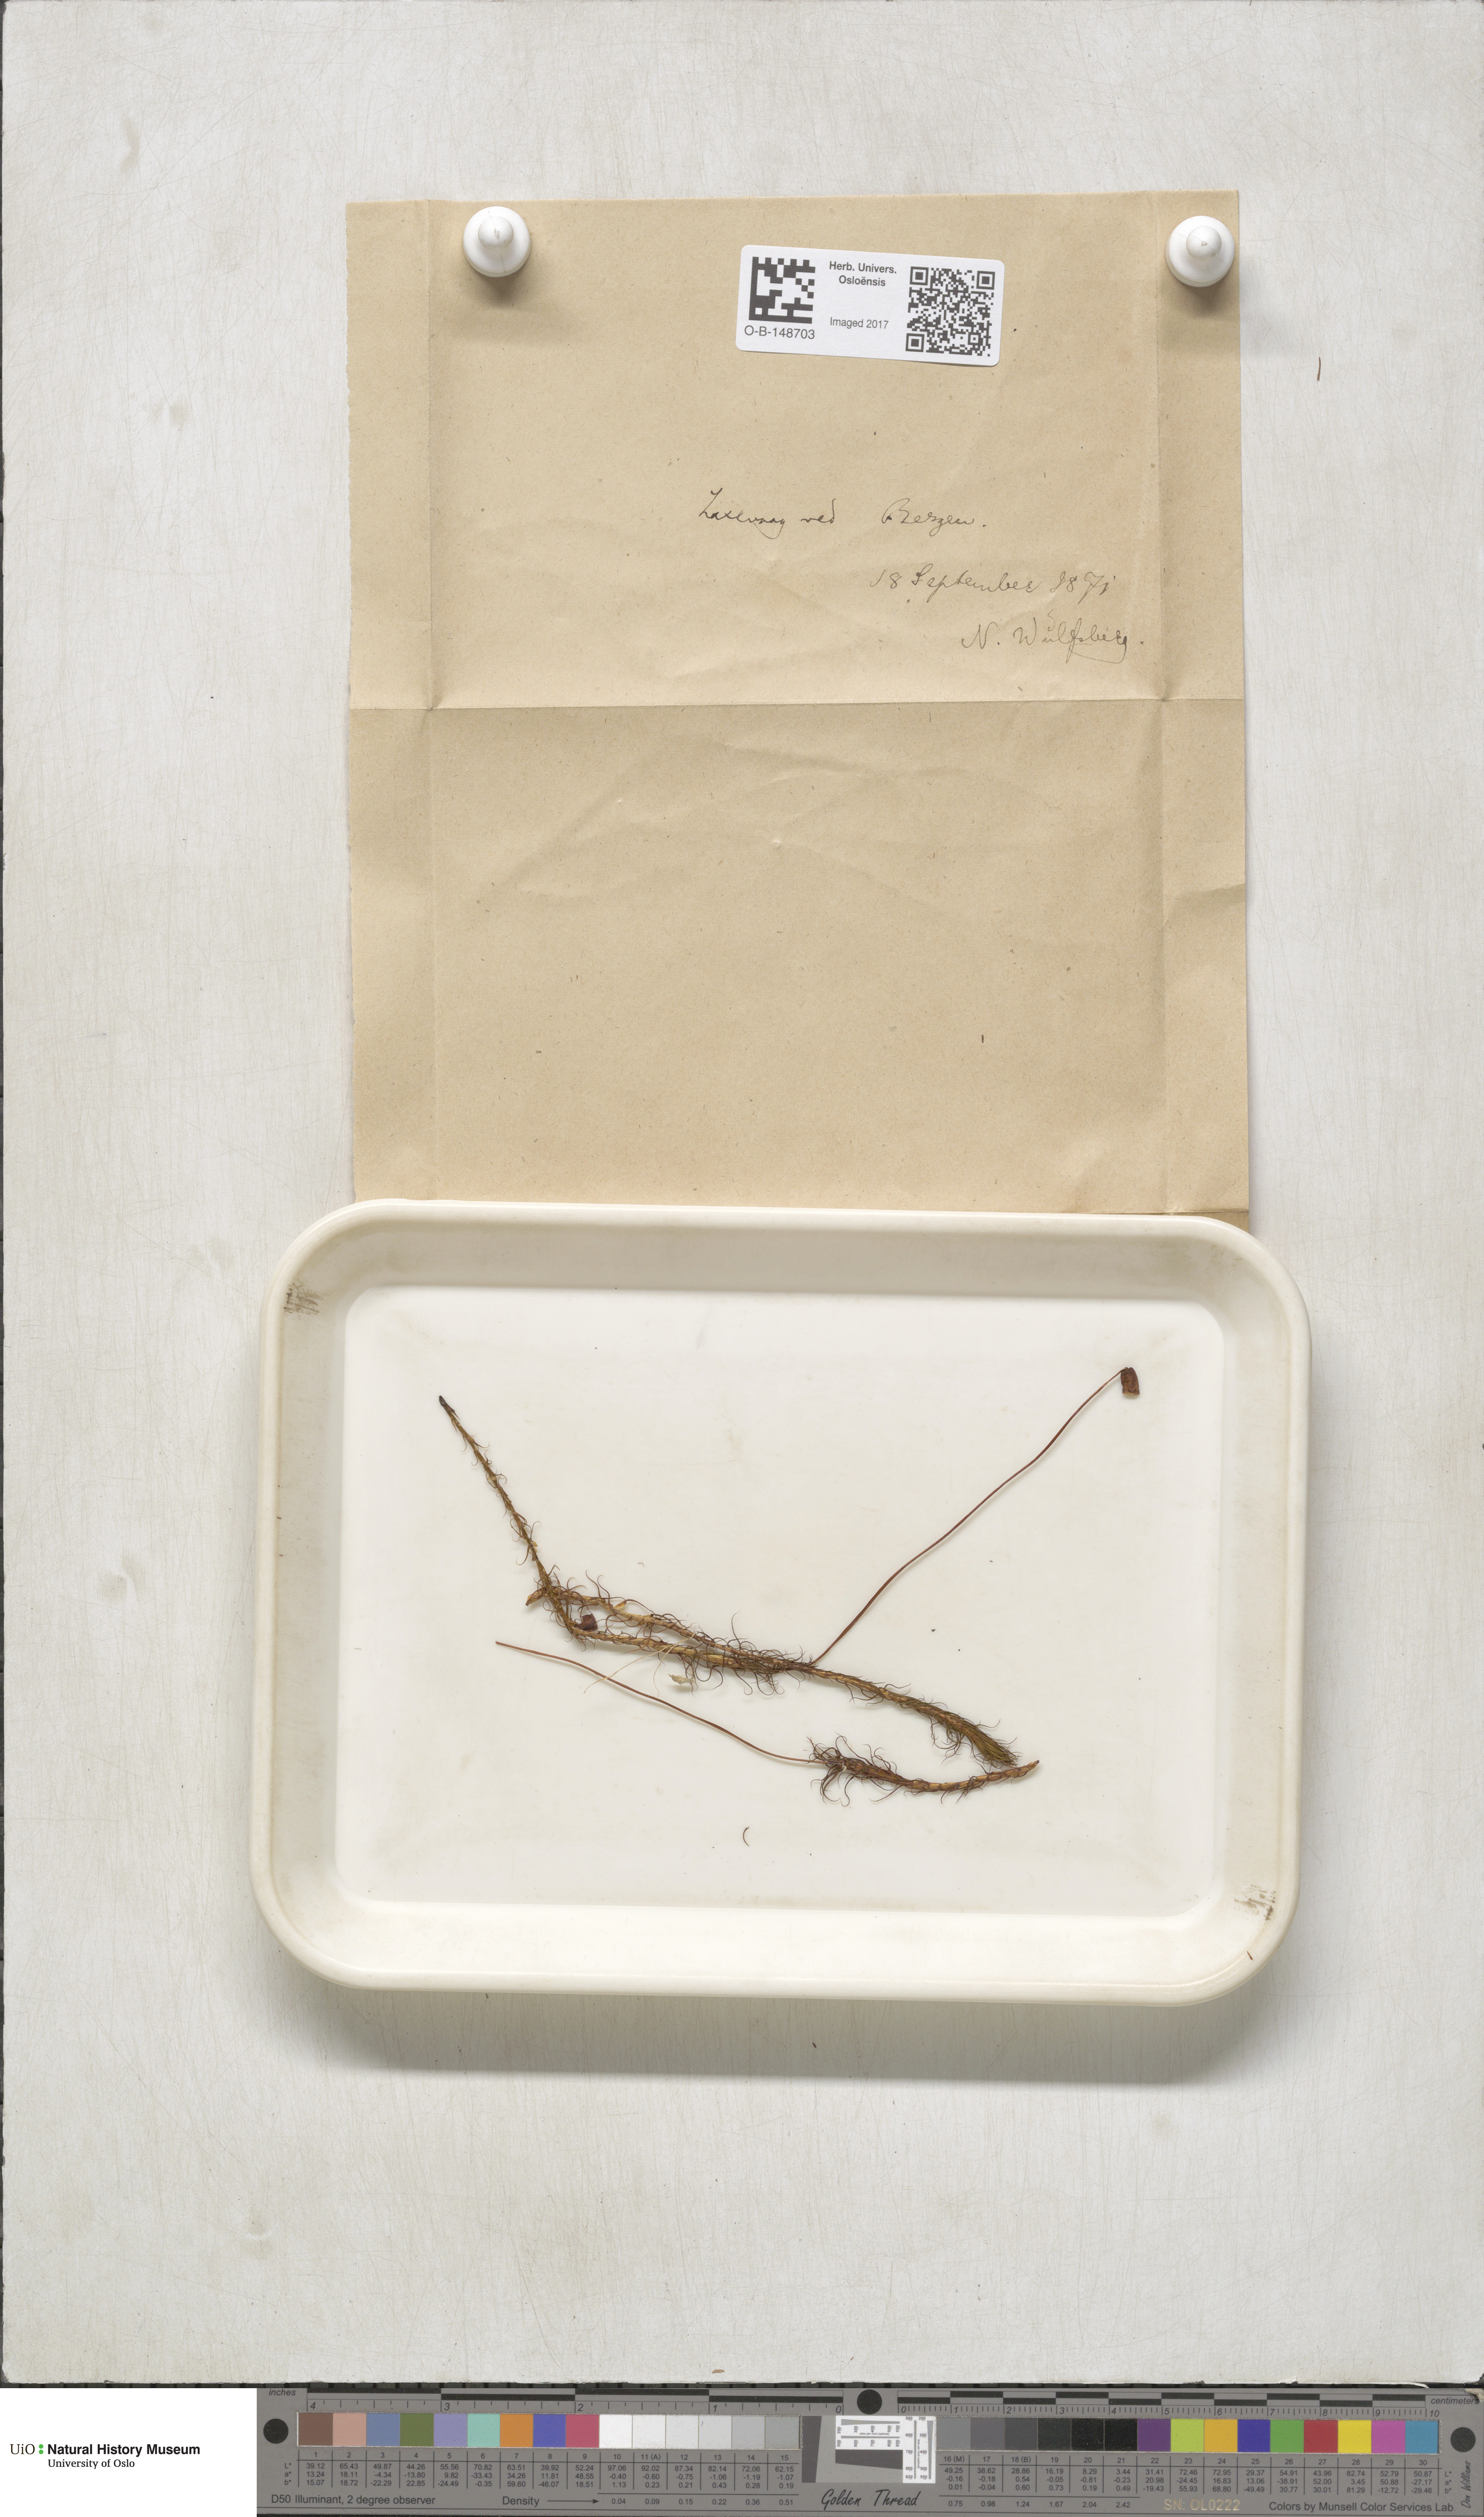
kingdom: Plantae
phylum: Bryophyta
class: Polytrichopsida
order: Polytrichales
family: Polytrichaceae
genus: Polytrichum
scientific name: Polytrichum commune
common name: Common haircap
